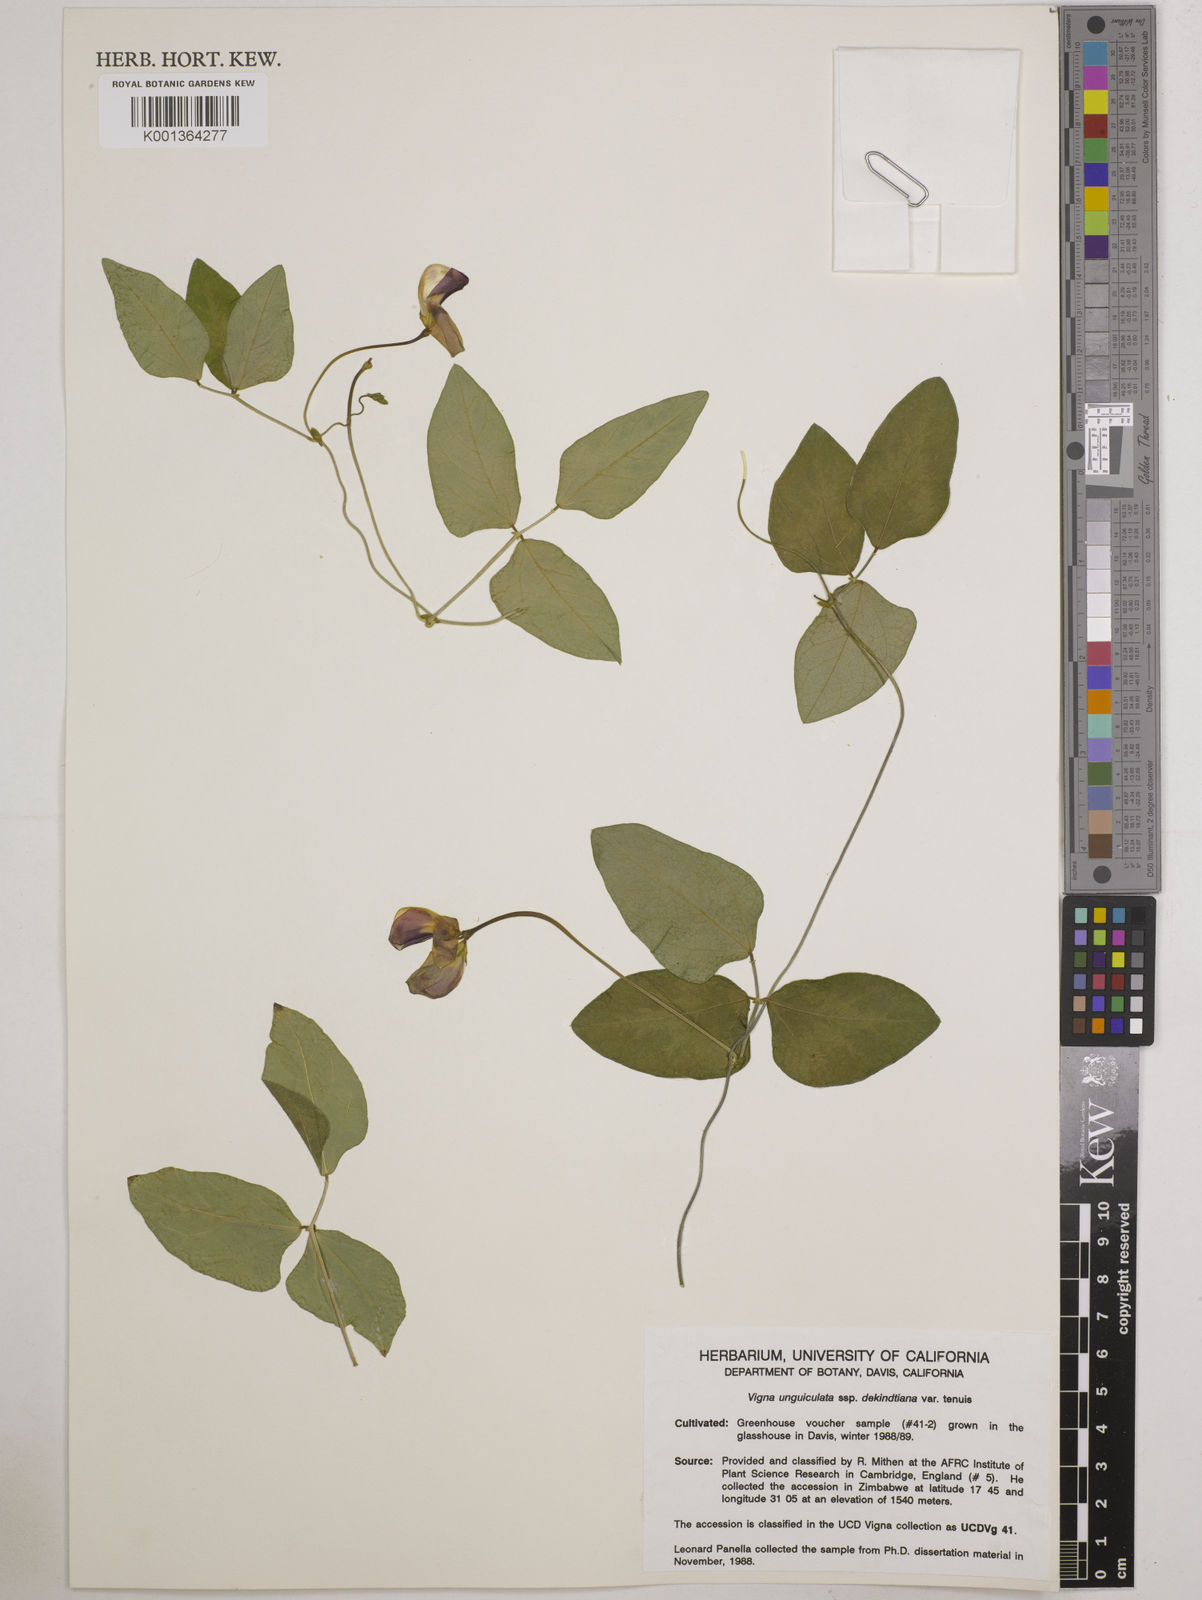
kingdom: Plantae
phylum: Tracheophyta
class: Magnoliopsida
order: Fabales
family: Fabaceae
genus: Vigna
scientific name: Vigna
